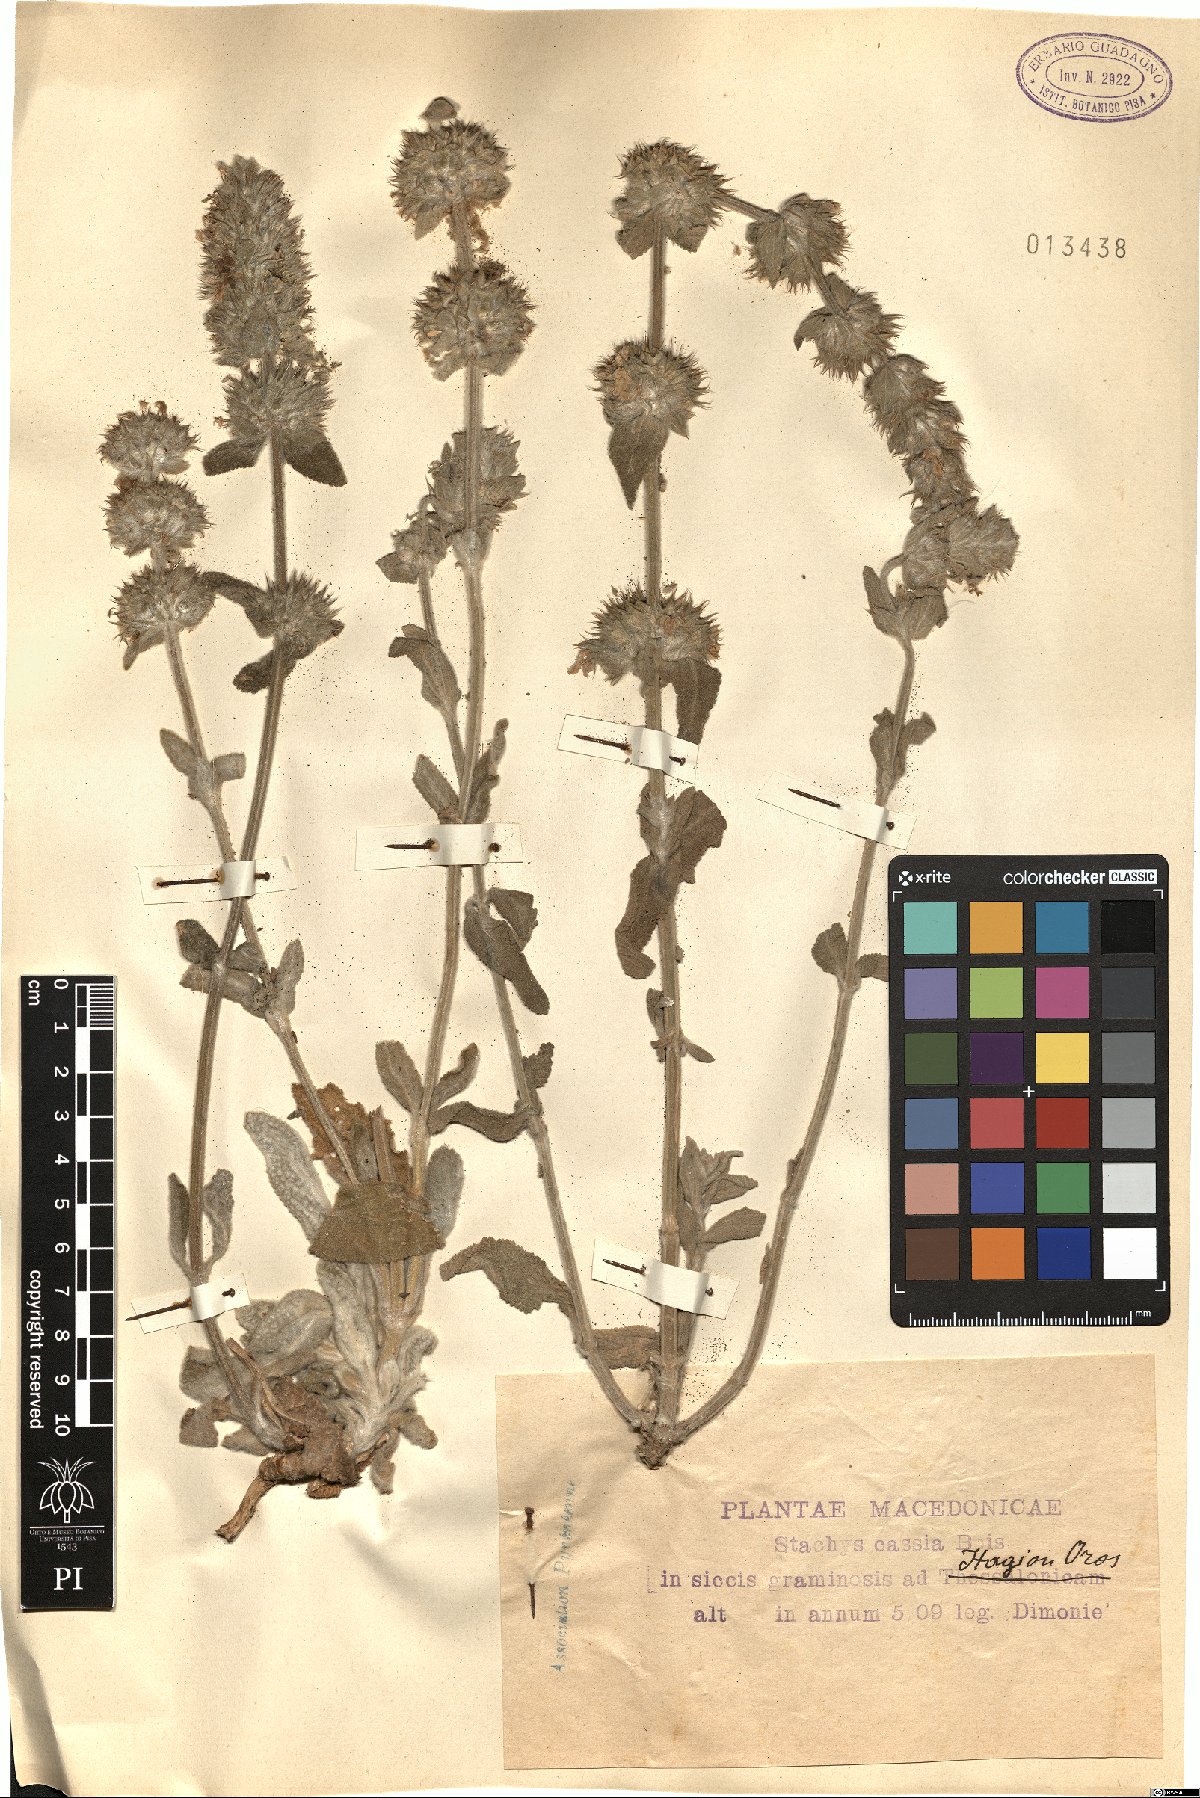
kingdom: Plantae
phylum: Tracheophyta
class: Magnoliopsida
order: Lamiales
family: Lamiaceae
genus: Stachys
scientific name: Stachys cretica
